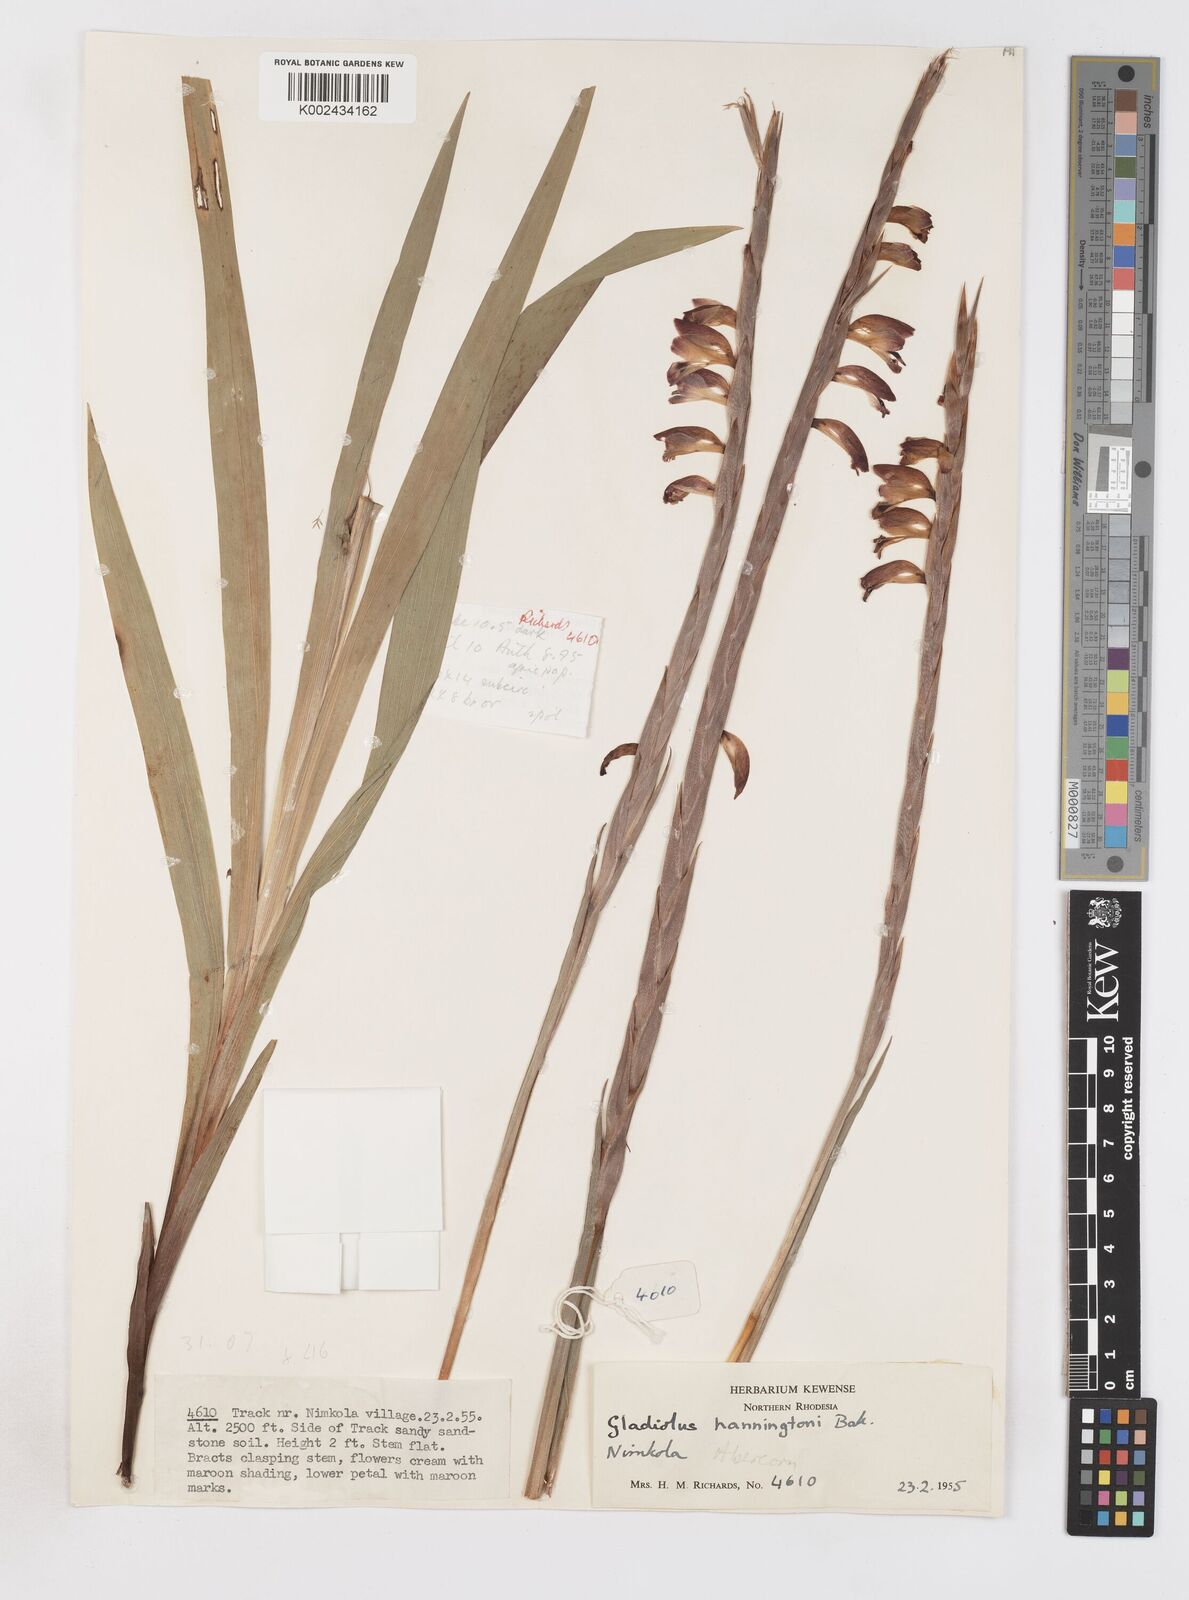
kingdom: Plantae
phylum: Tracheophyta
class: Liliopsida
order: Asparagales
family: Iridaceae
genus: Gladiolus
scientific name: Gladiolus gregarius
